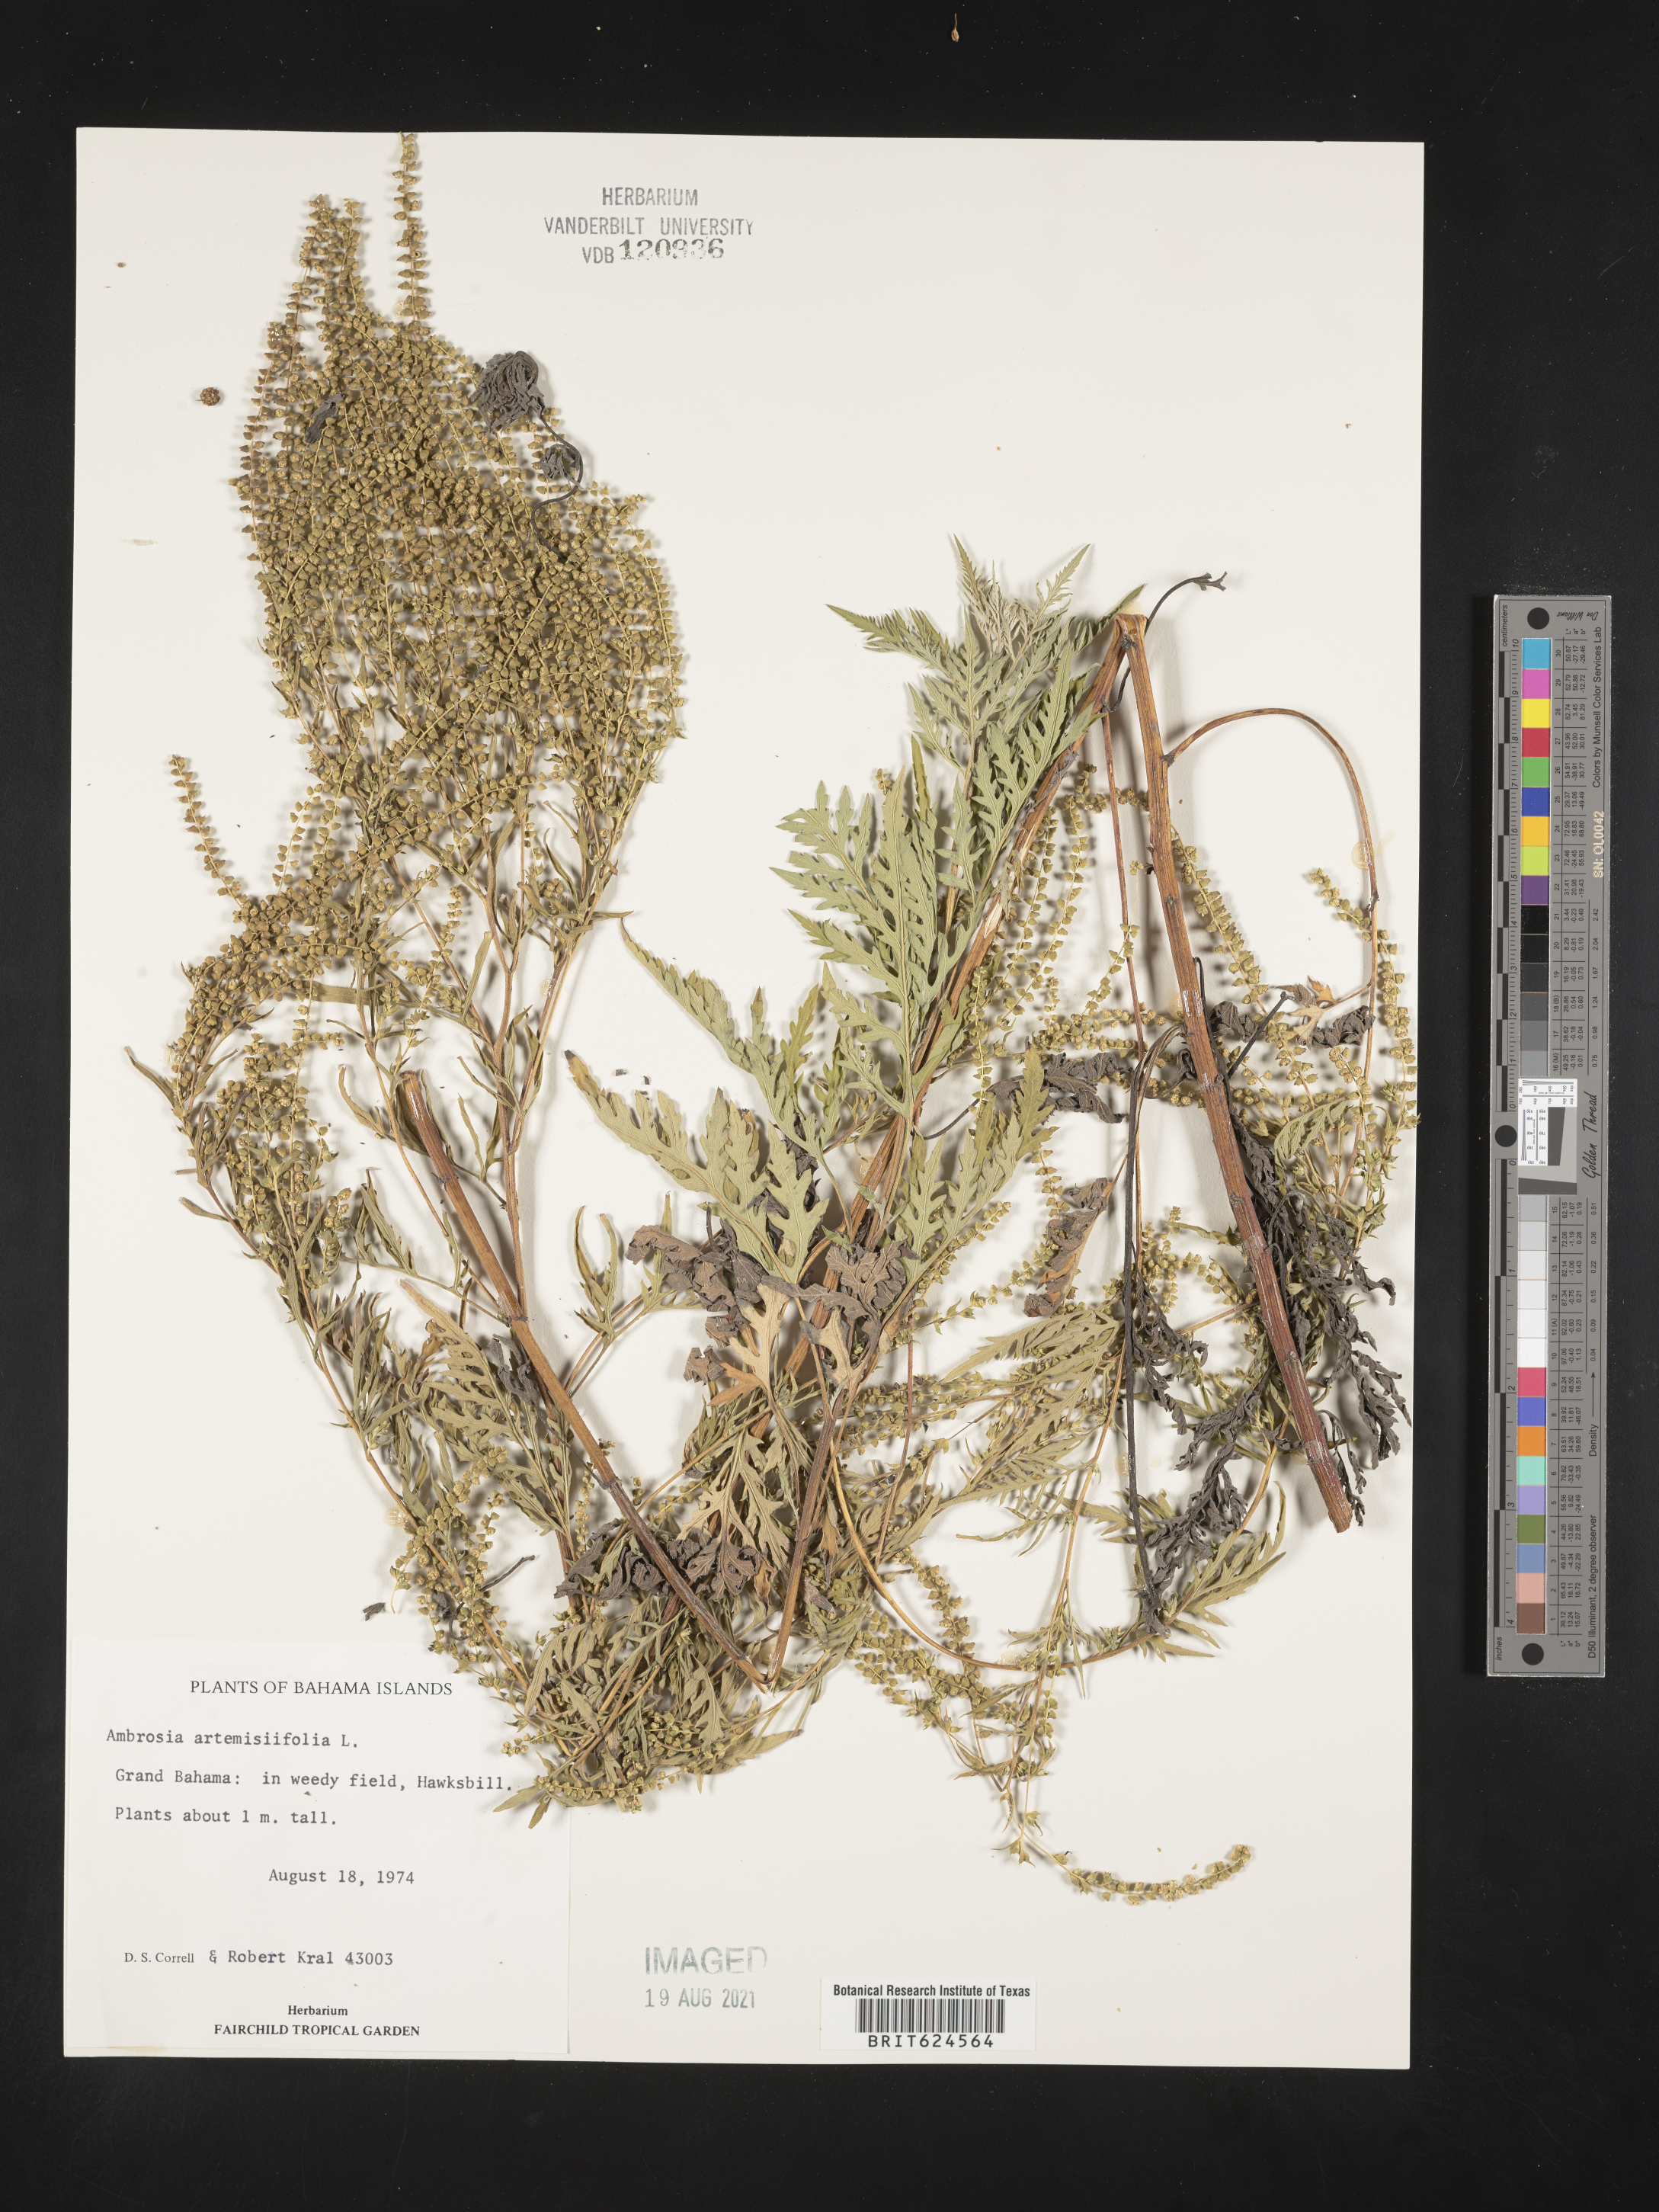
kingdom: Plantae
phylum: Tracheophyta
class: Magnoliopsida
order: Asterales
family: Asteraceae
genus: Ambrosia
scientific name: Ambrosia artemisiifolia
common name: Annual ragweed
